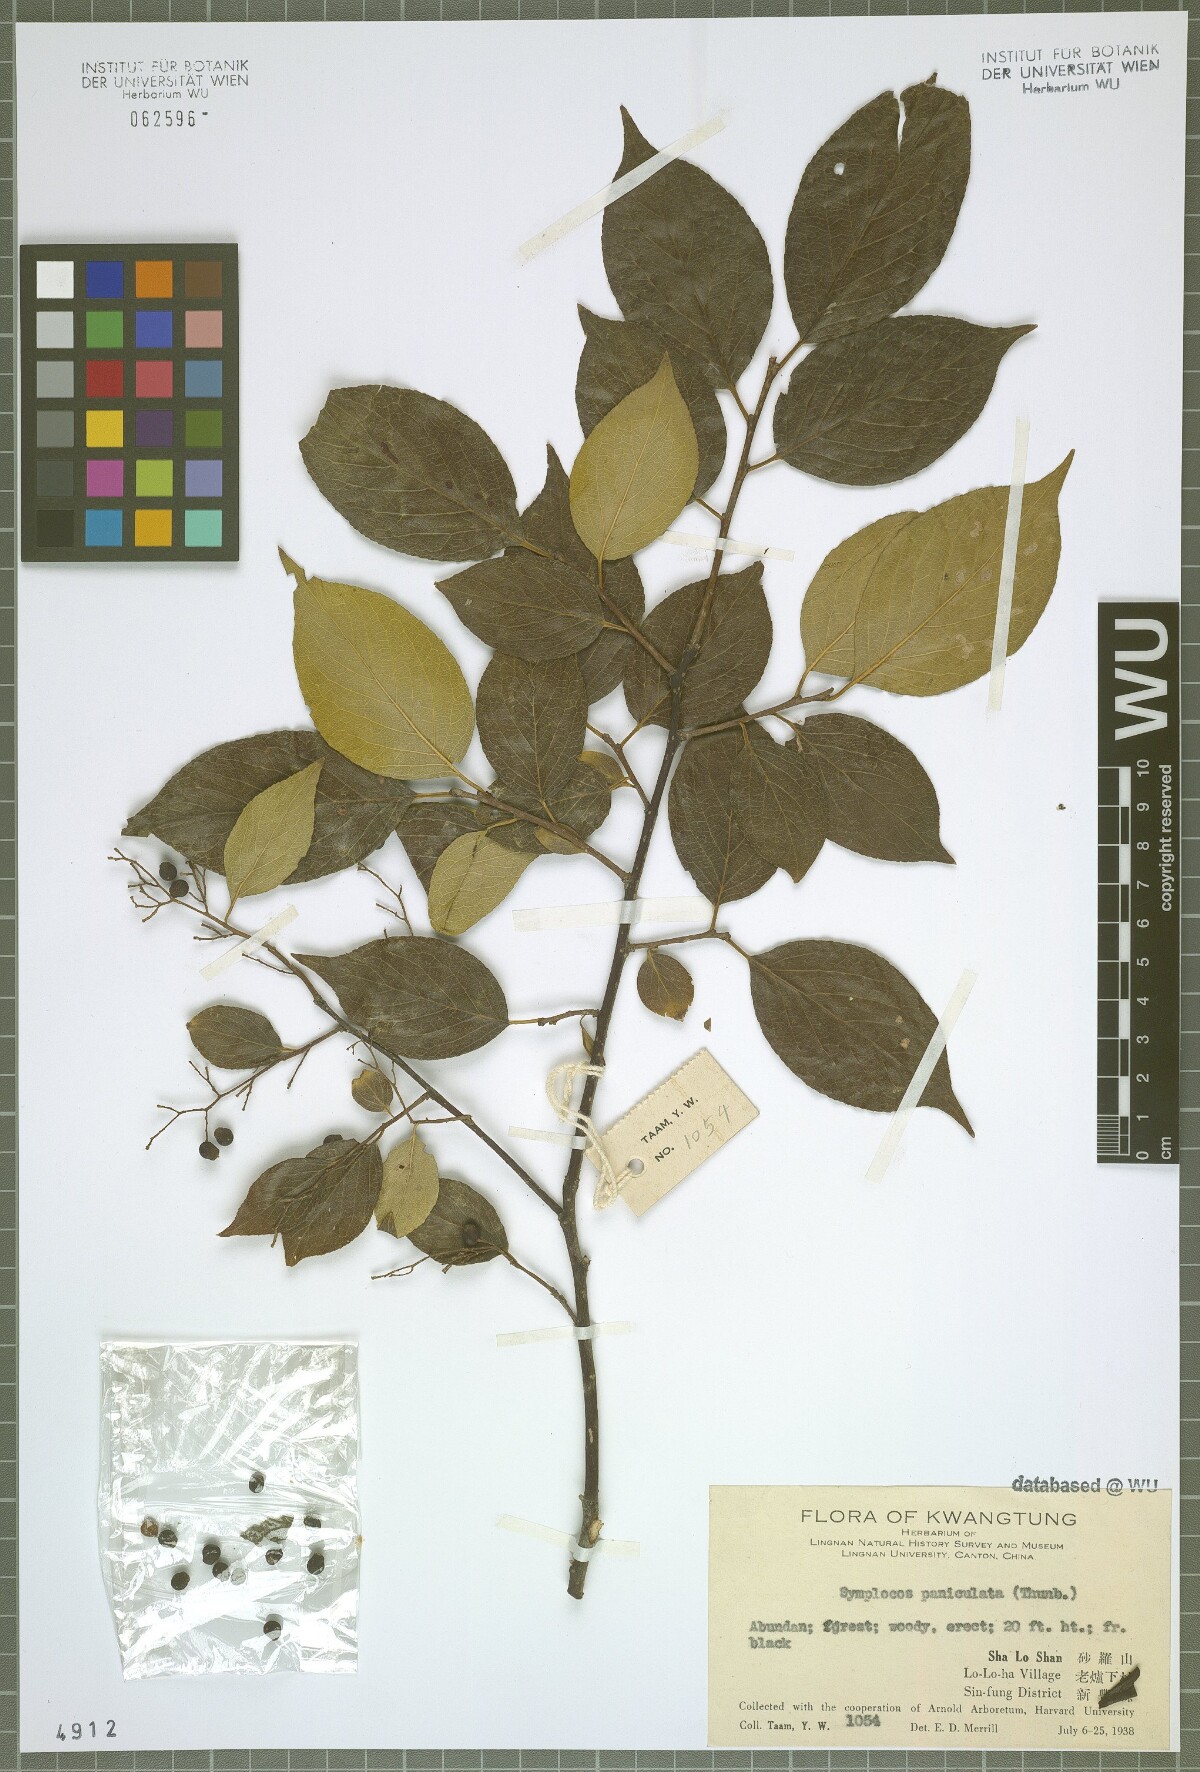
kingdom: Plantae
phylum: Tracheophyta
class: Magnoliopsida
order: Ericales
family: Symplocaceae
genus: Symplocos
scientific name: Symplocos paniculata
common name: Sapphire-berry
